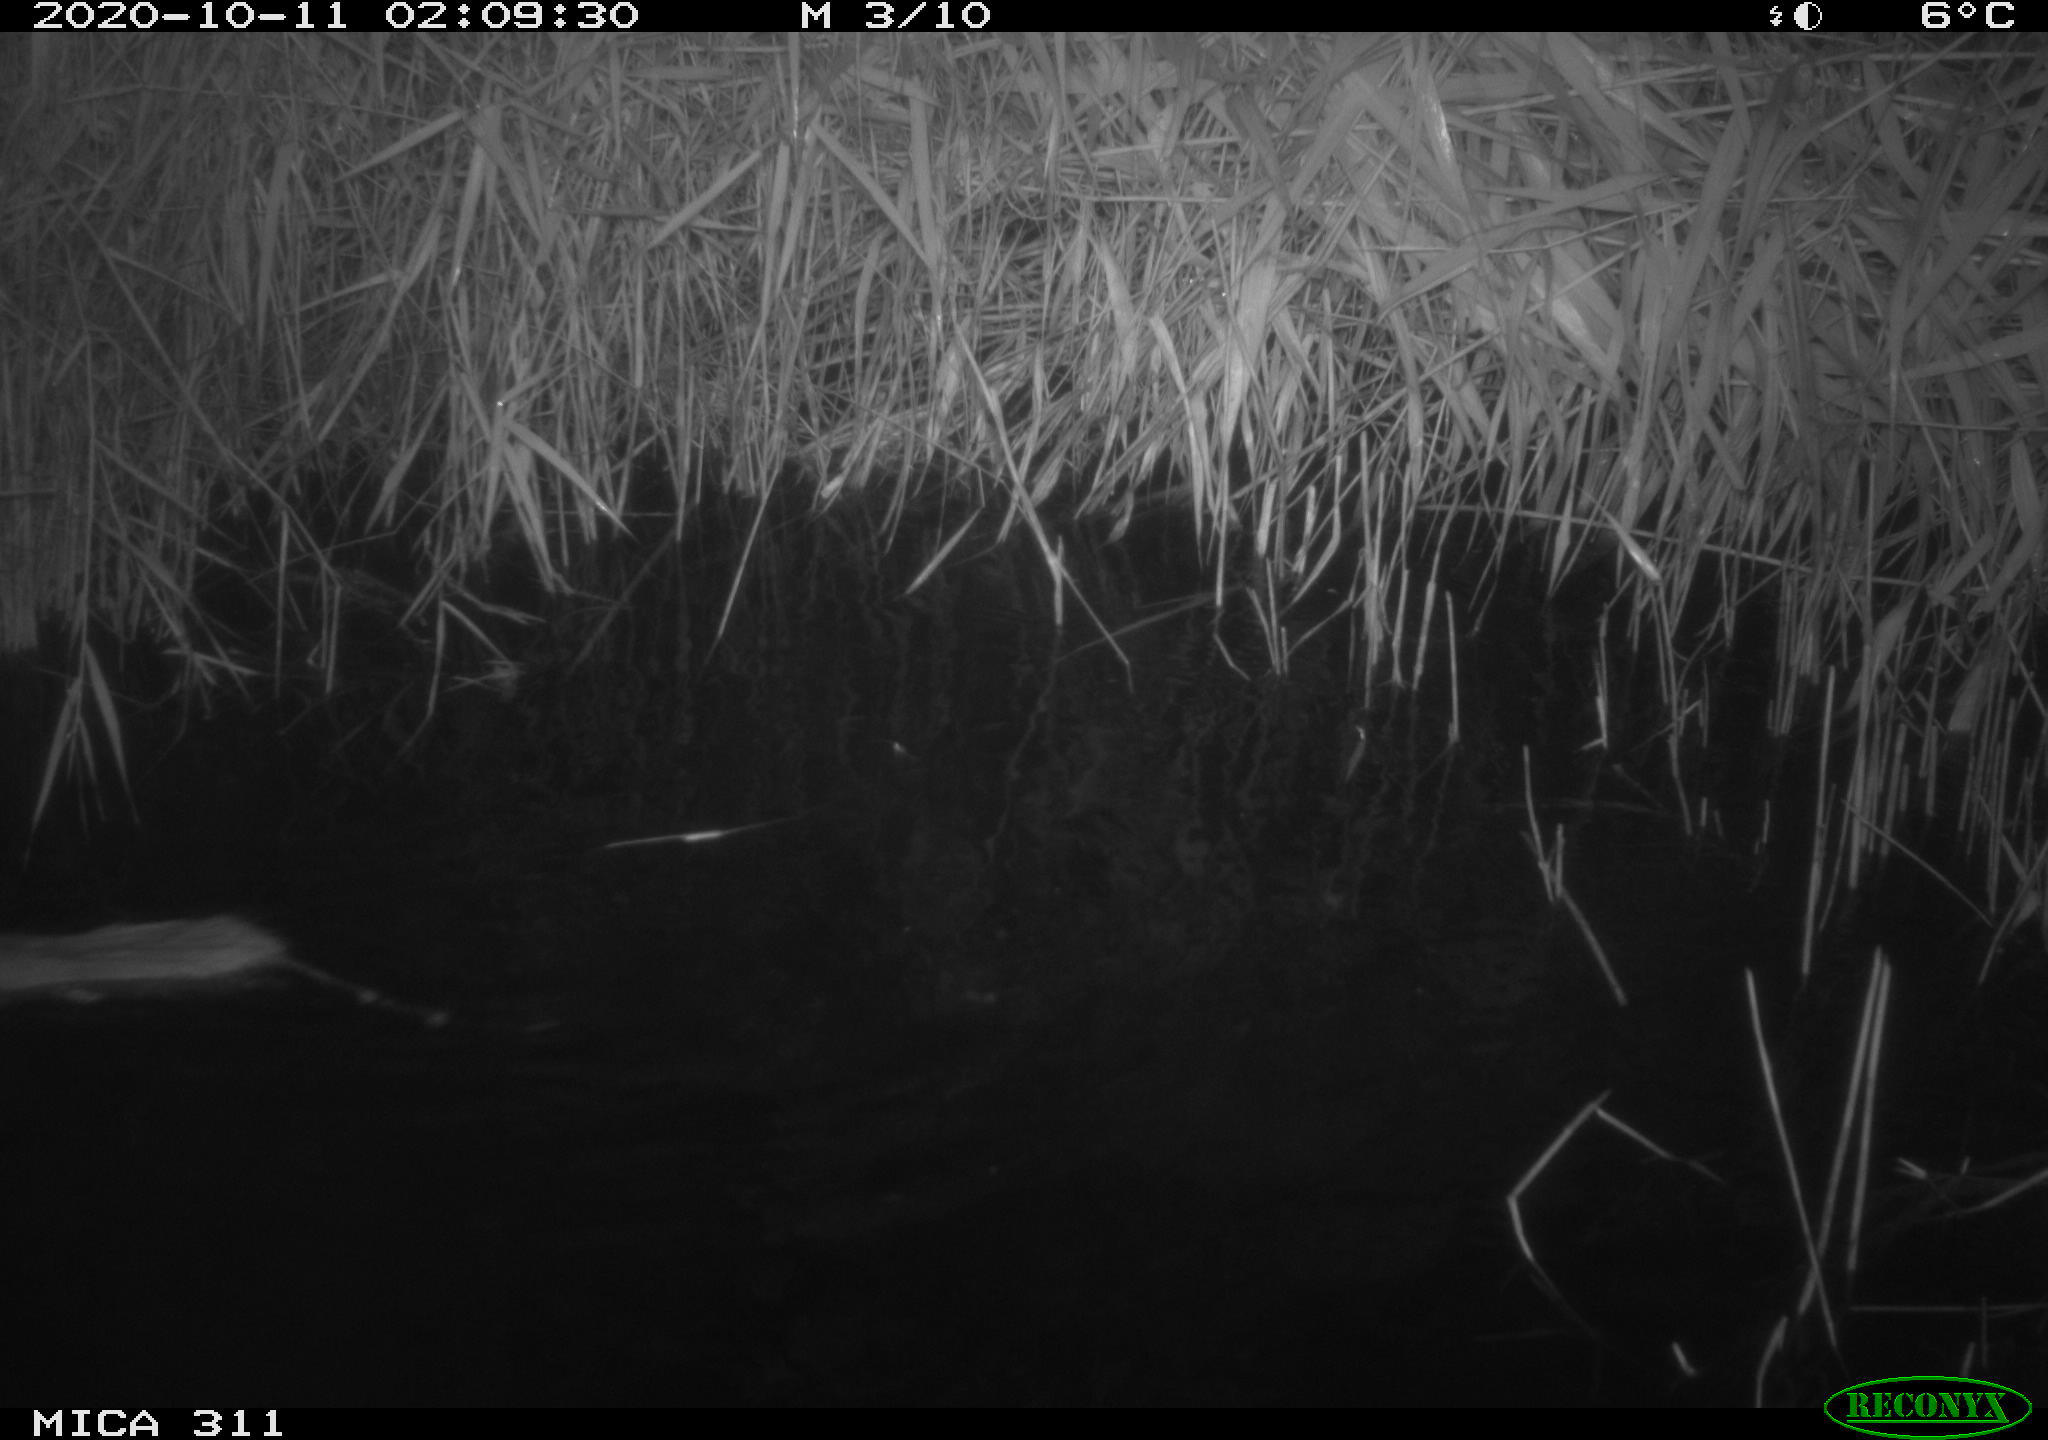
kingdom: Animalia
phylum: Chordata
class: Mammalia
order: Rodentia
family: Muridae
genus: Rattus
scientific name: Rattus norvegicus
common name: Brown rat
